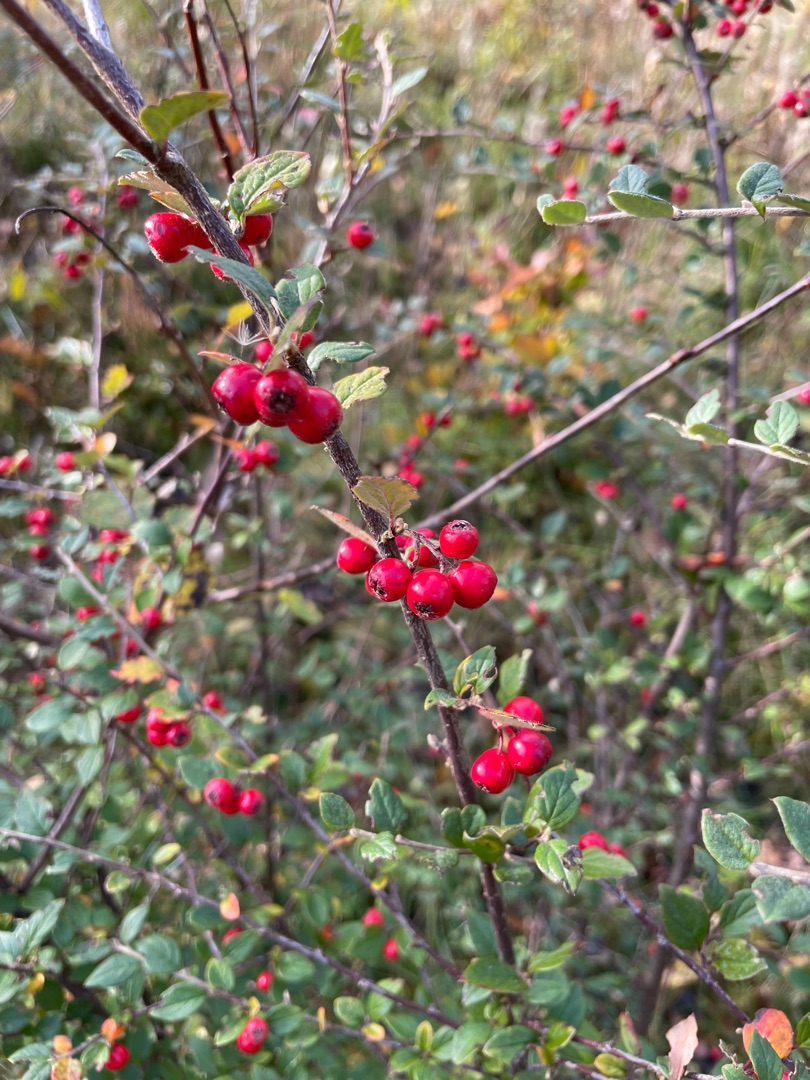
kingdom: Plantae
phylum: Tracheophyta
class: Magnoliopsida
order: Rosales
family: Rosaceae
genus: Cotoneaster
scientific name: Cotoneaster dielsianus
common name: Kinesisk dværgmispel
